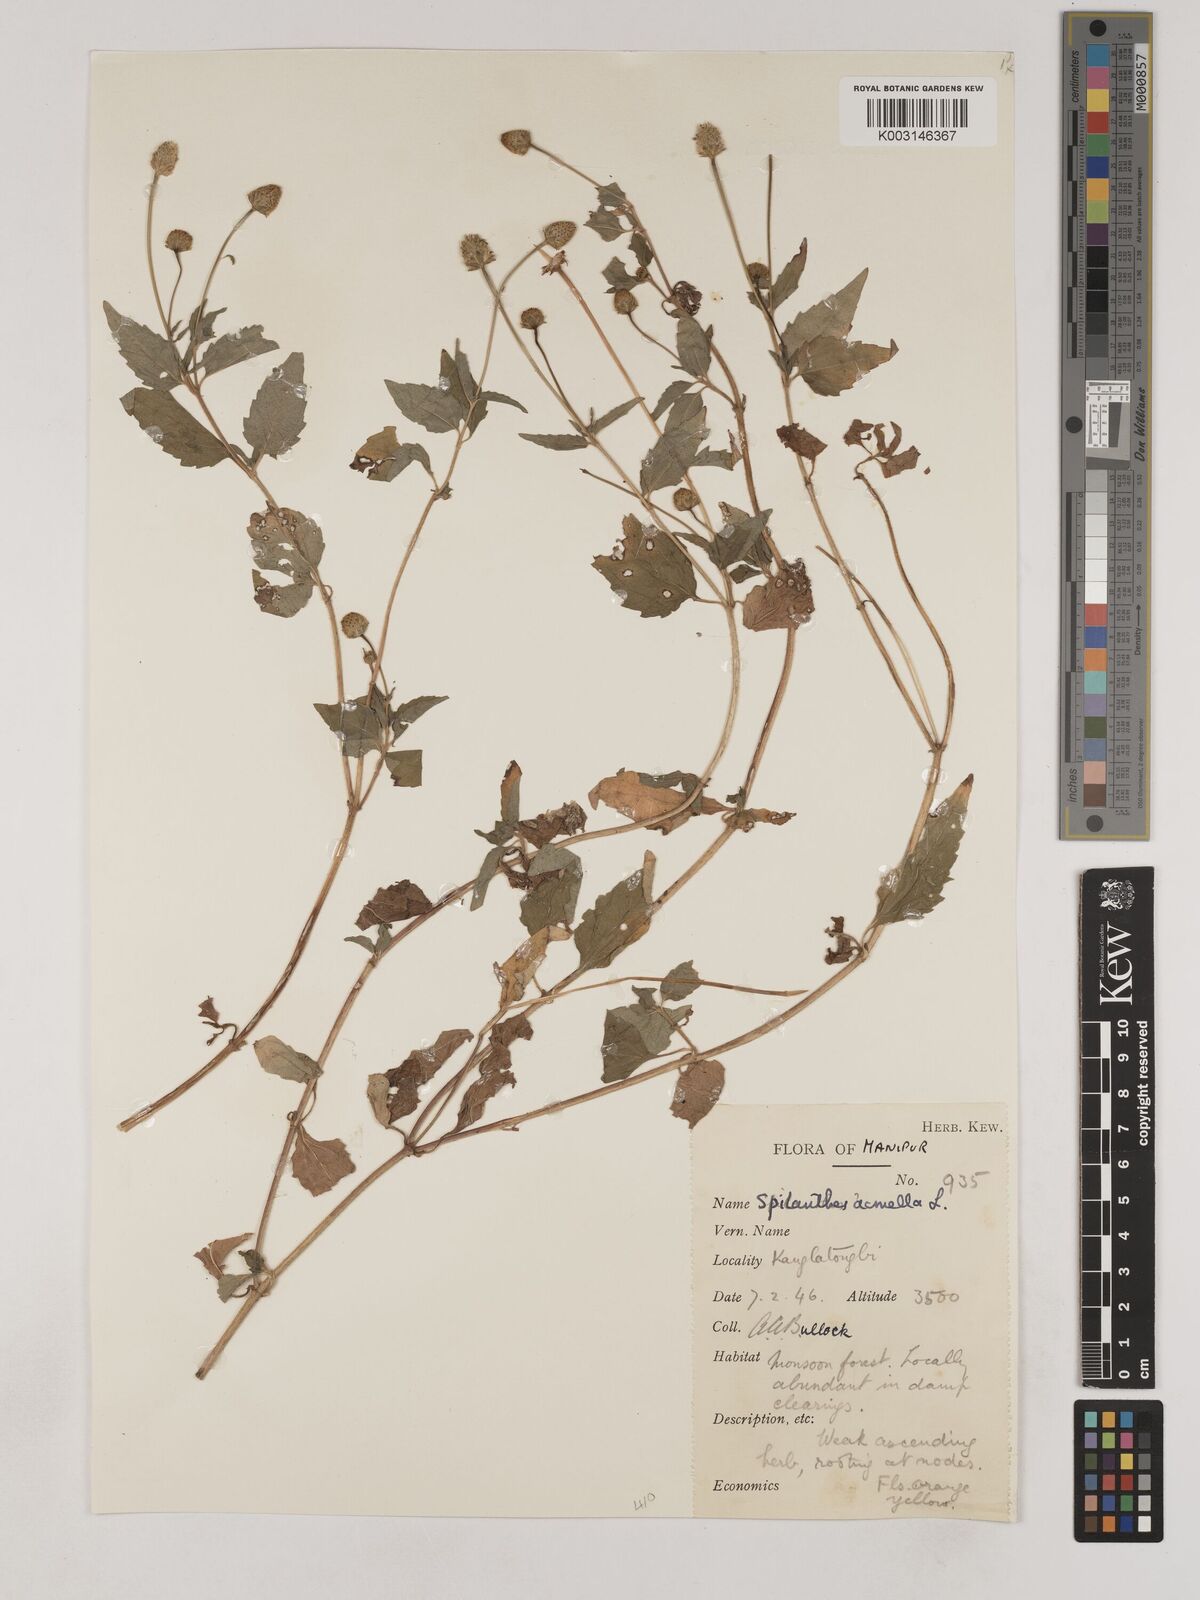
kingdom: Plantae
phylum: Tracheophyta
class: Magnoliopsida
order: Asterales
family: Asteraceae
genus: Acmella
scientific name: Acmella paniculata
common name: Panicled spot flower
